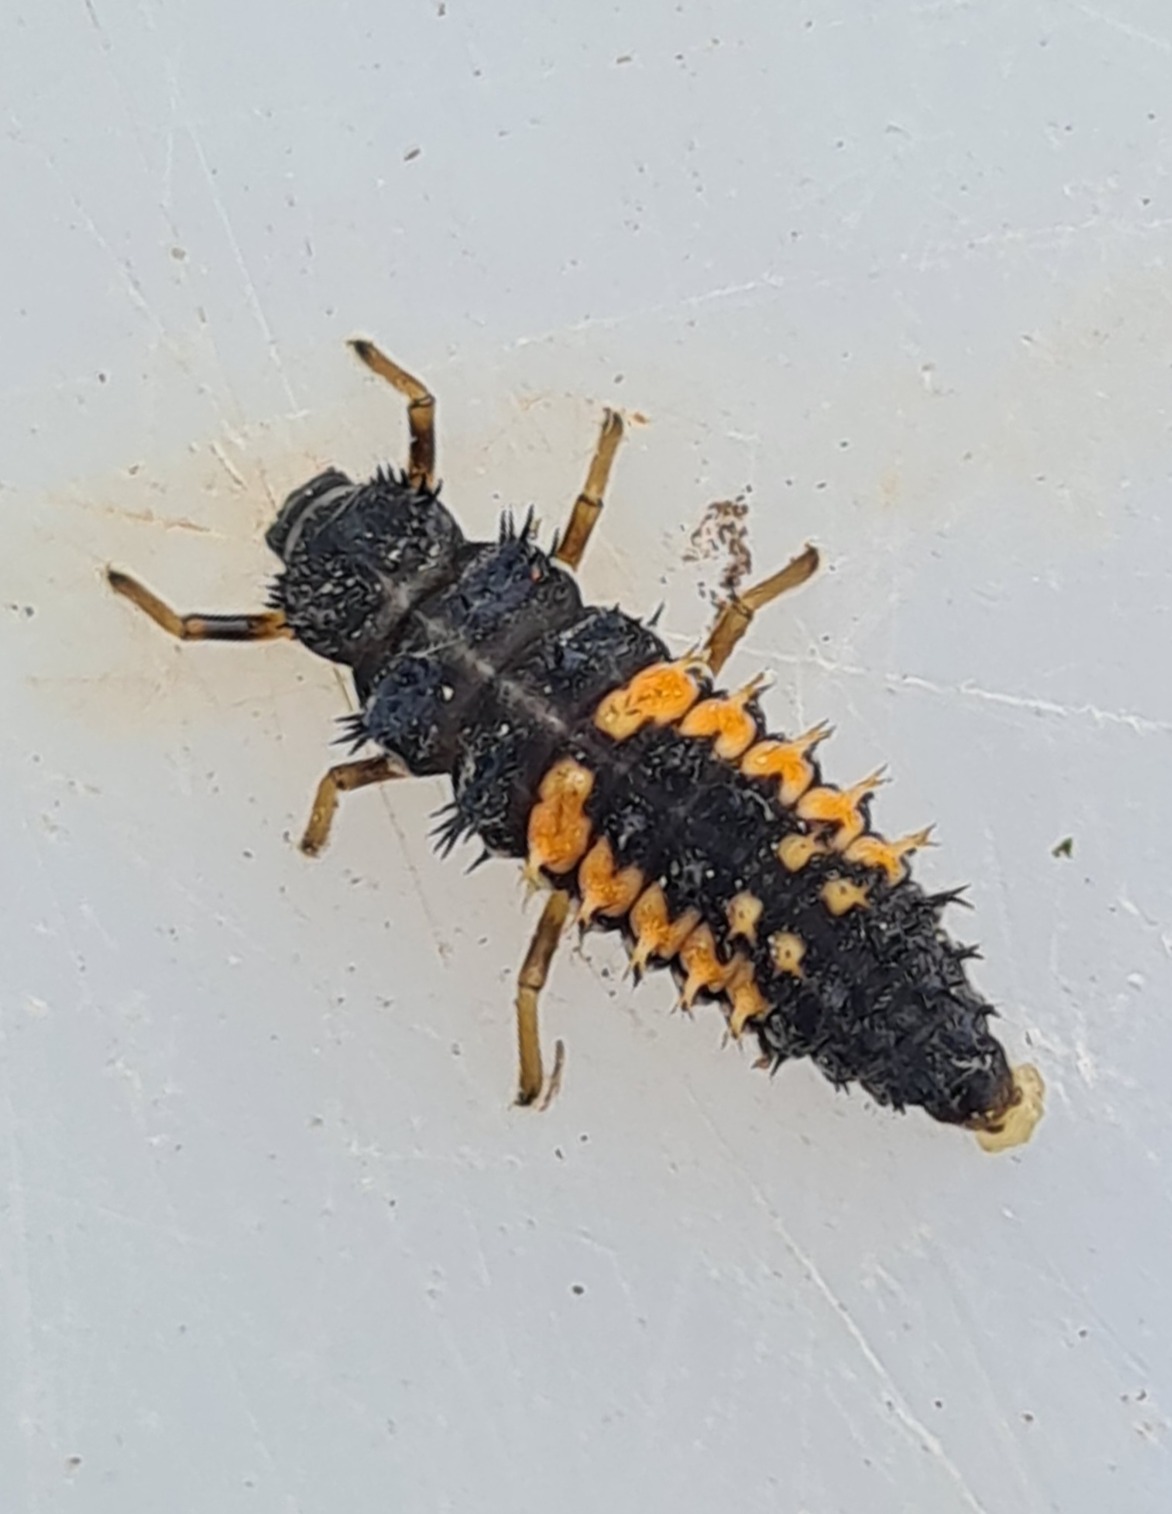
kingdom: Animalia
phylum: Arthropoda
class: Insecta
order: Coleoptera
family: Coccinellidae
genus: Harmonia
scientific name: Harmonia axyridis
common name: Harlekinmariehøne
